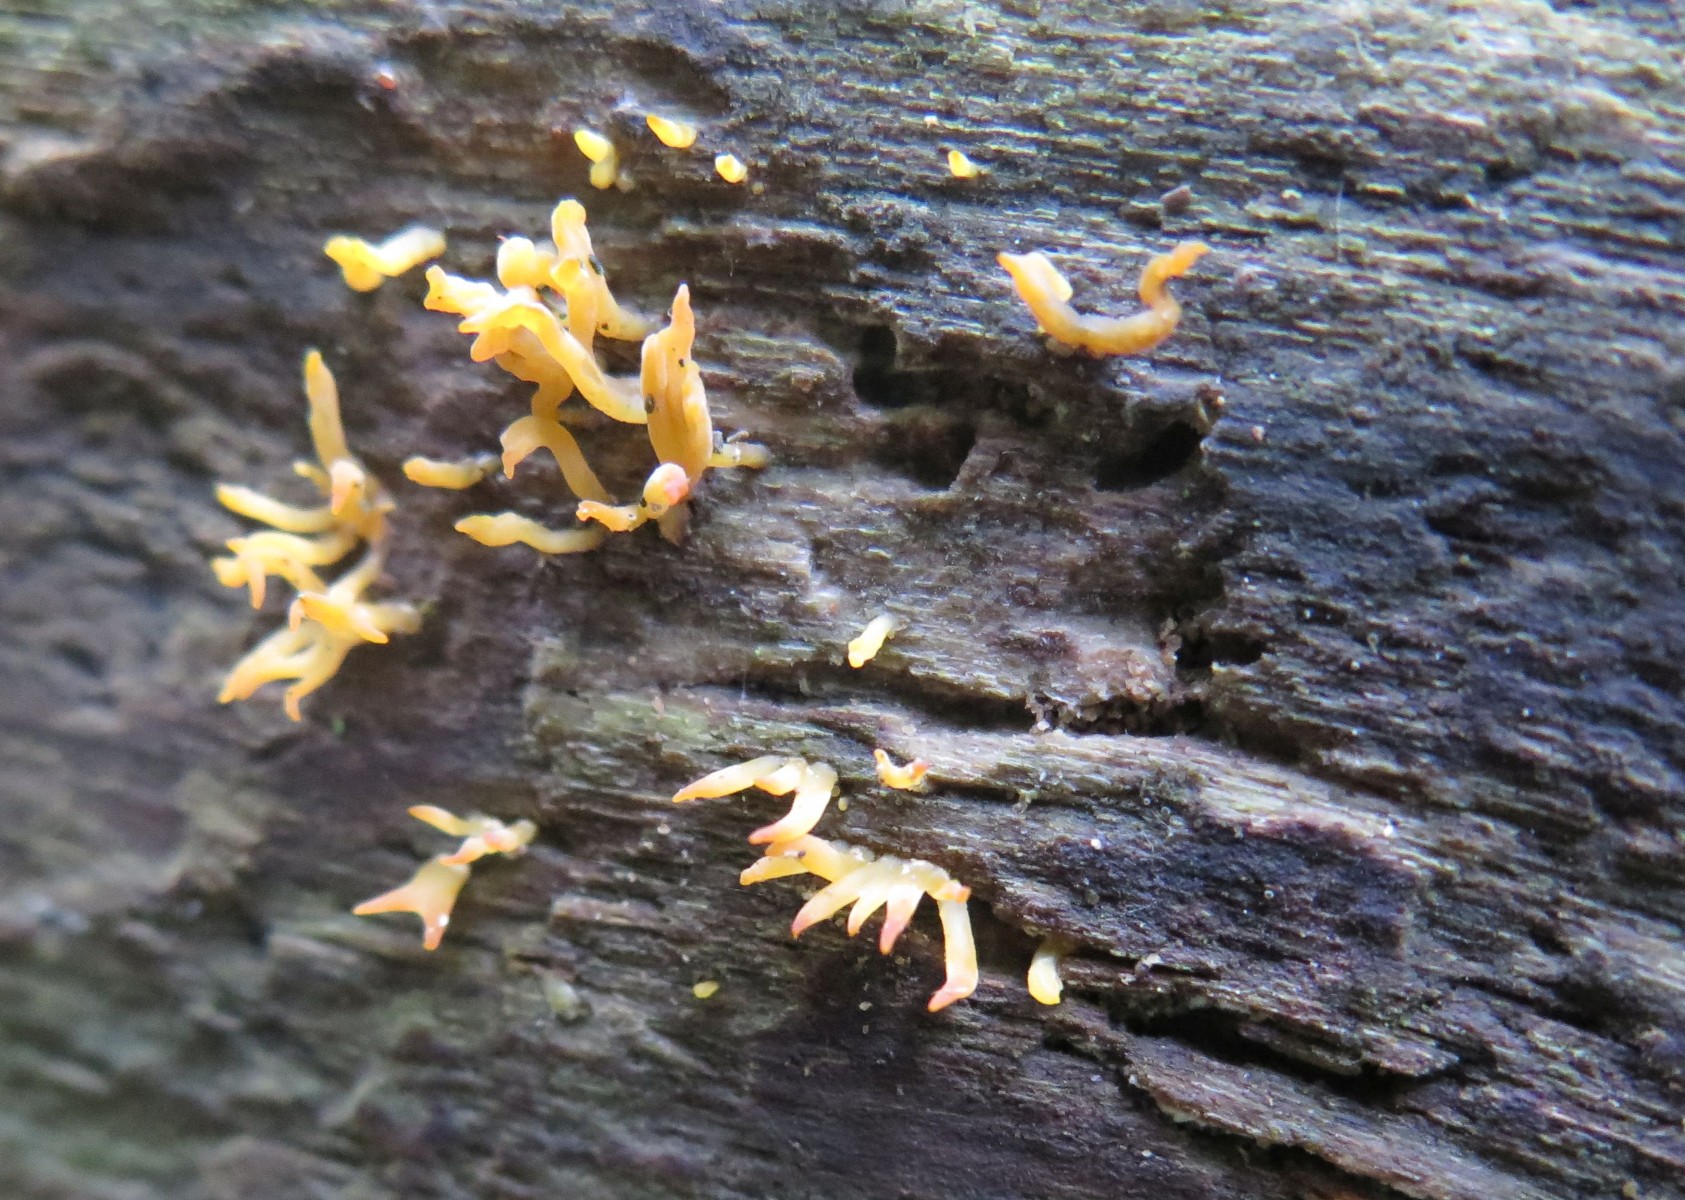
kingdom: Fungi
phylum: Basidiomycota
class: Dacrymycetes
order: Dacrymycetales
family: Dacrymycetaceae
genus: Calocera
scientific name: Calocera cornea
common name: liden guldgaffel
